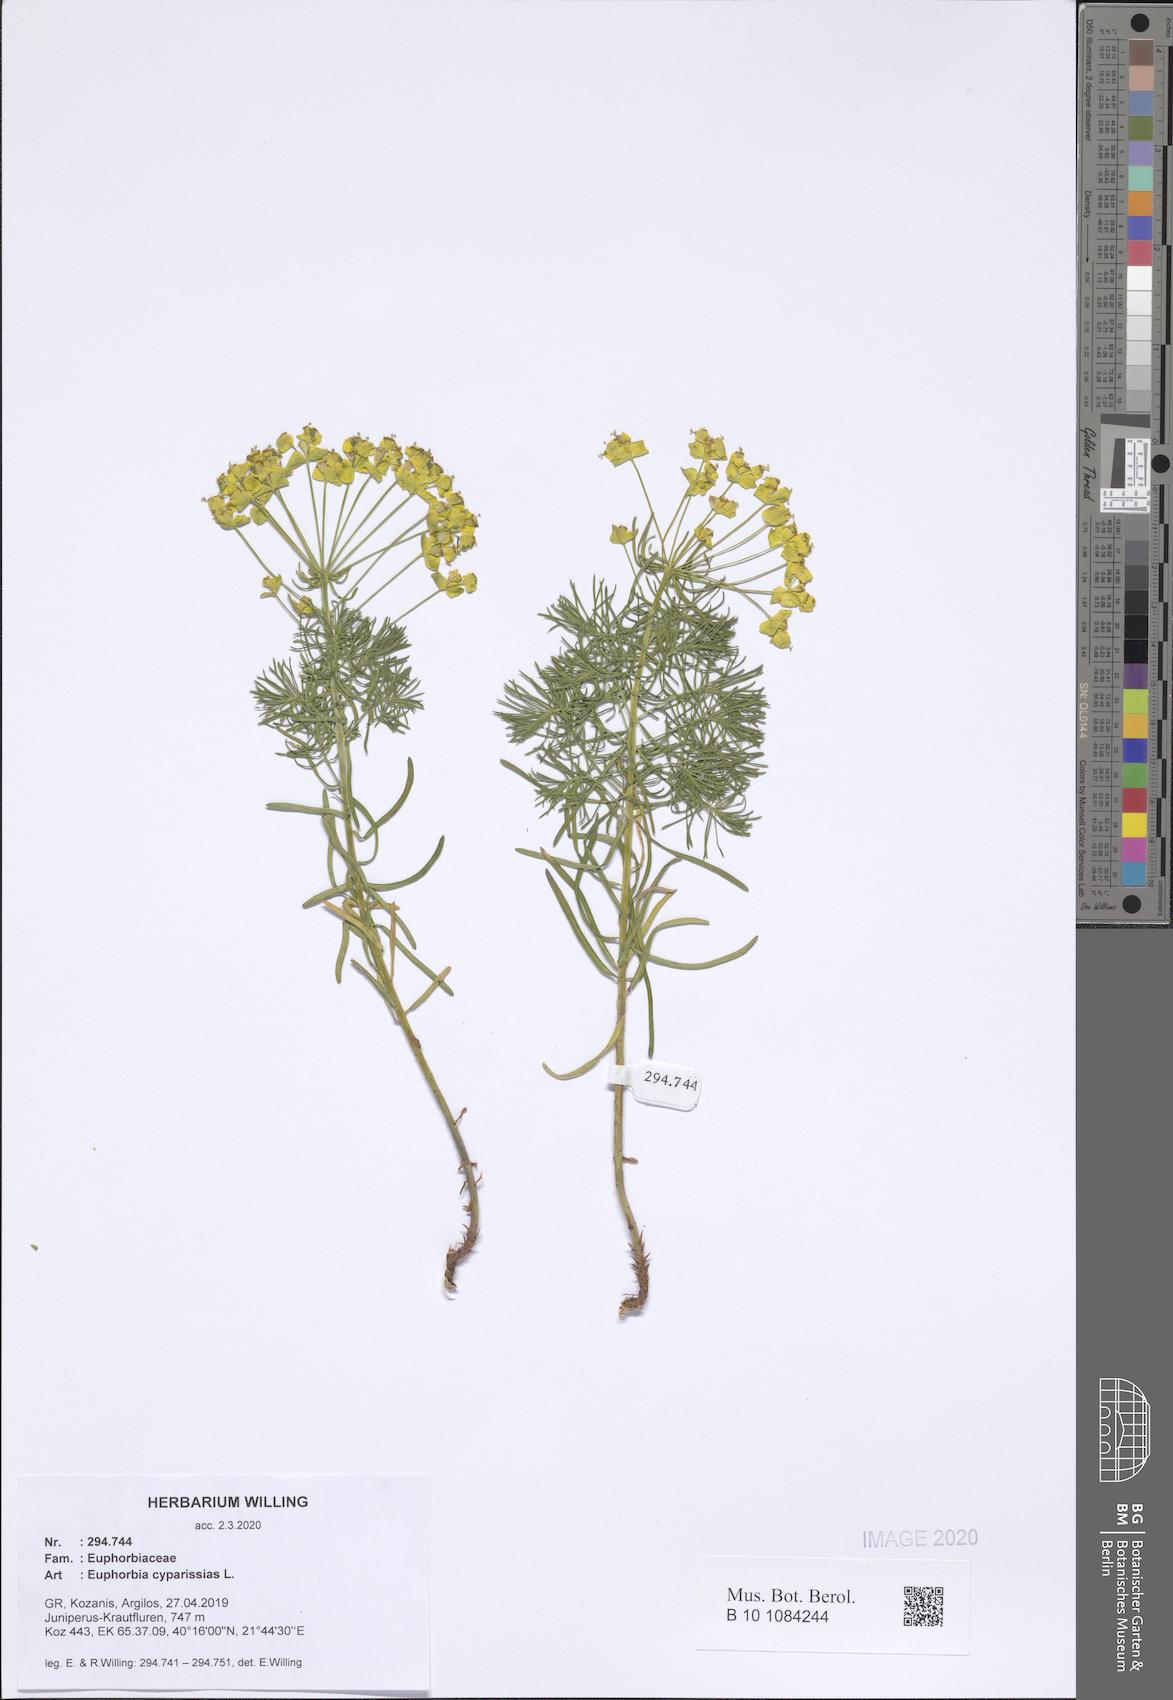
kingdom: Plantae
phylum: Tracheophyta
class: Magnoliopsida
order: Malpighiales
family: Euphorbiaceae
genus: Euphorbia
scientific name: Euphorbia cyparissias
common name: Cypress spurge
